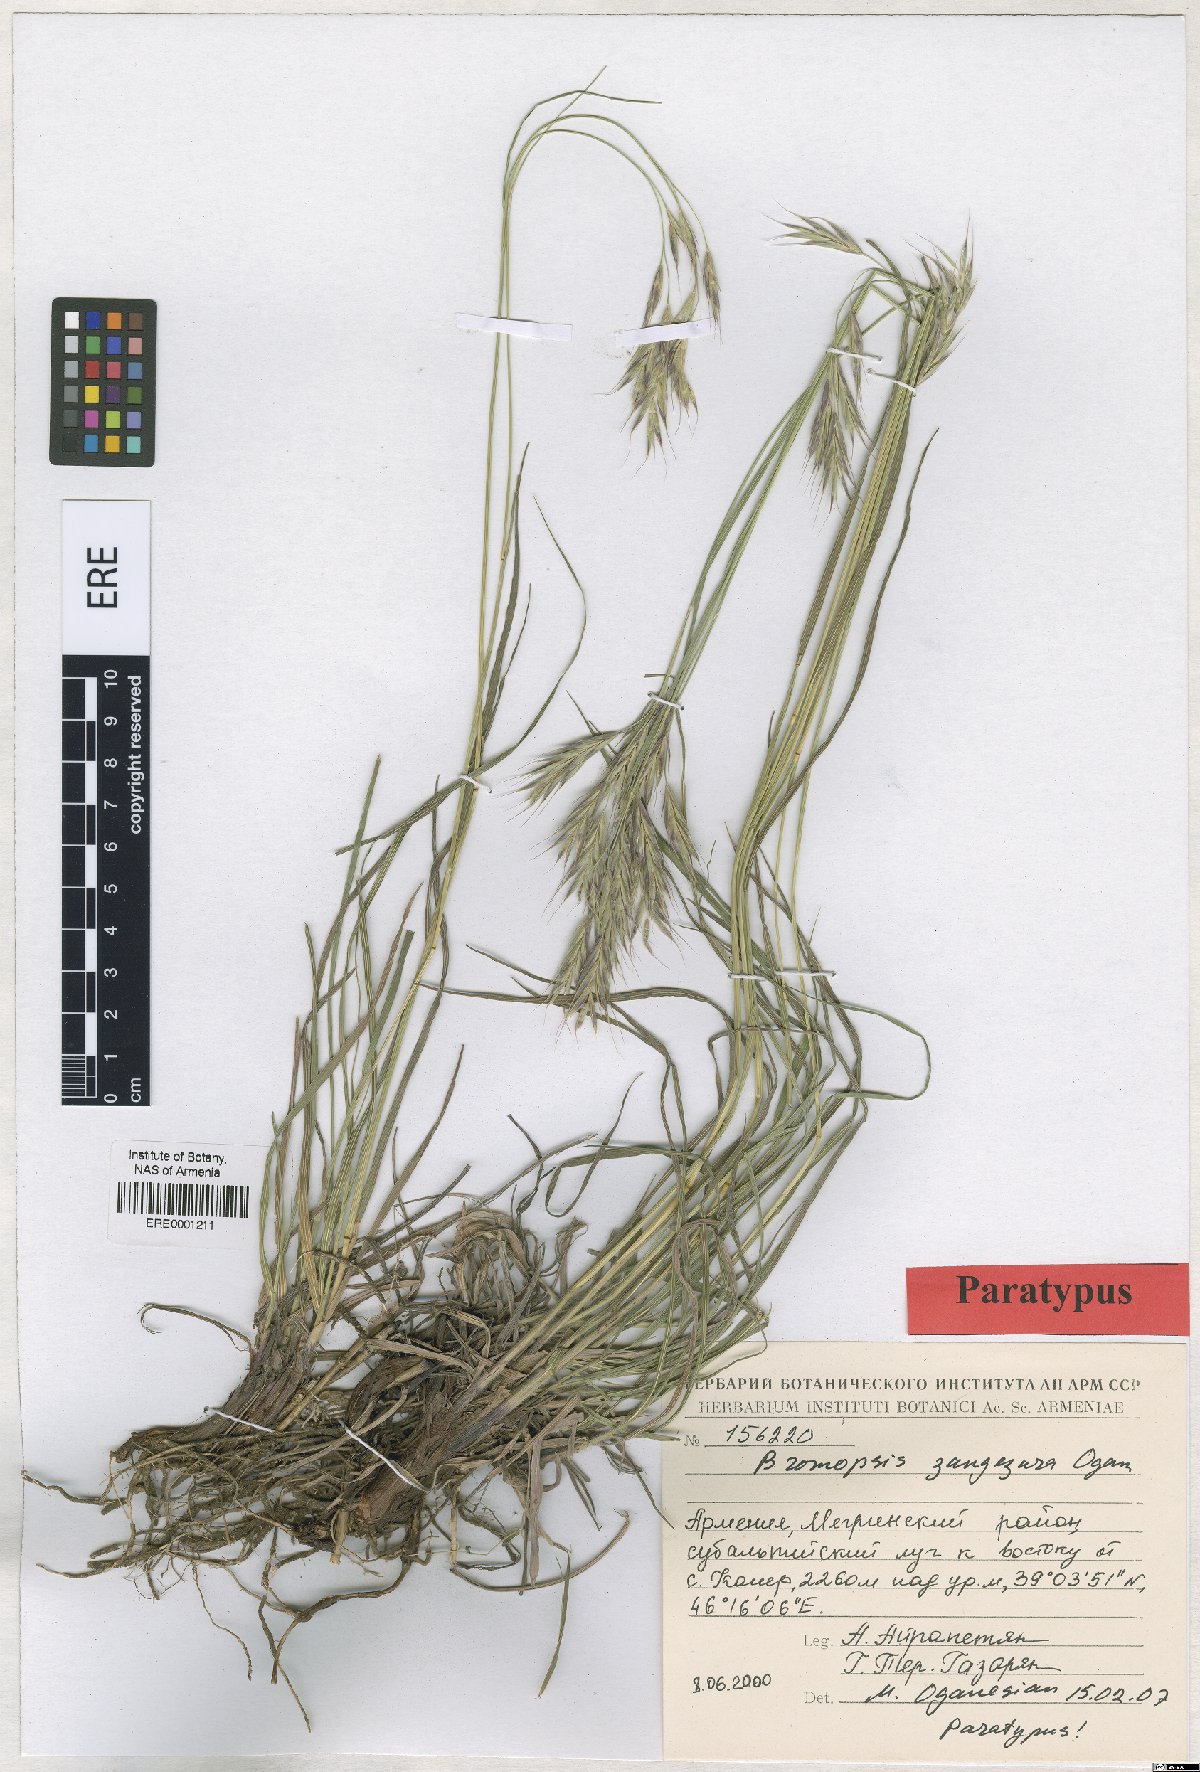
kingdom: Plantae
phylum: Tracheophyta
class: Liliopsida
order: Poales
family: Poaceae
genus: Bromus
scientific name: Bromus erectus
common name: Erect brome
